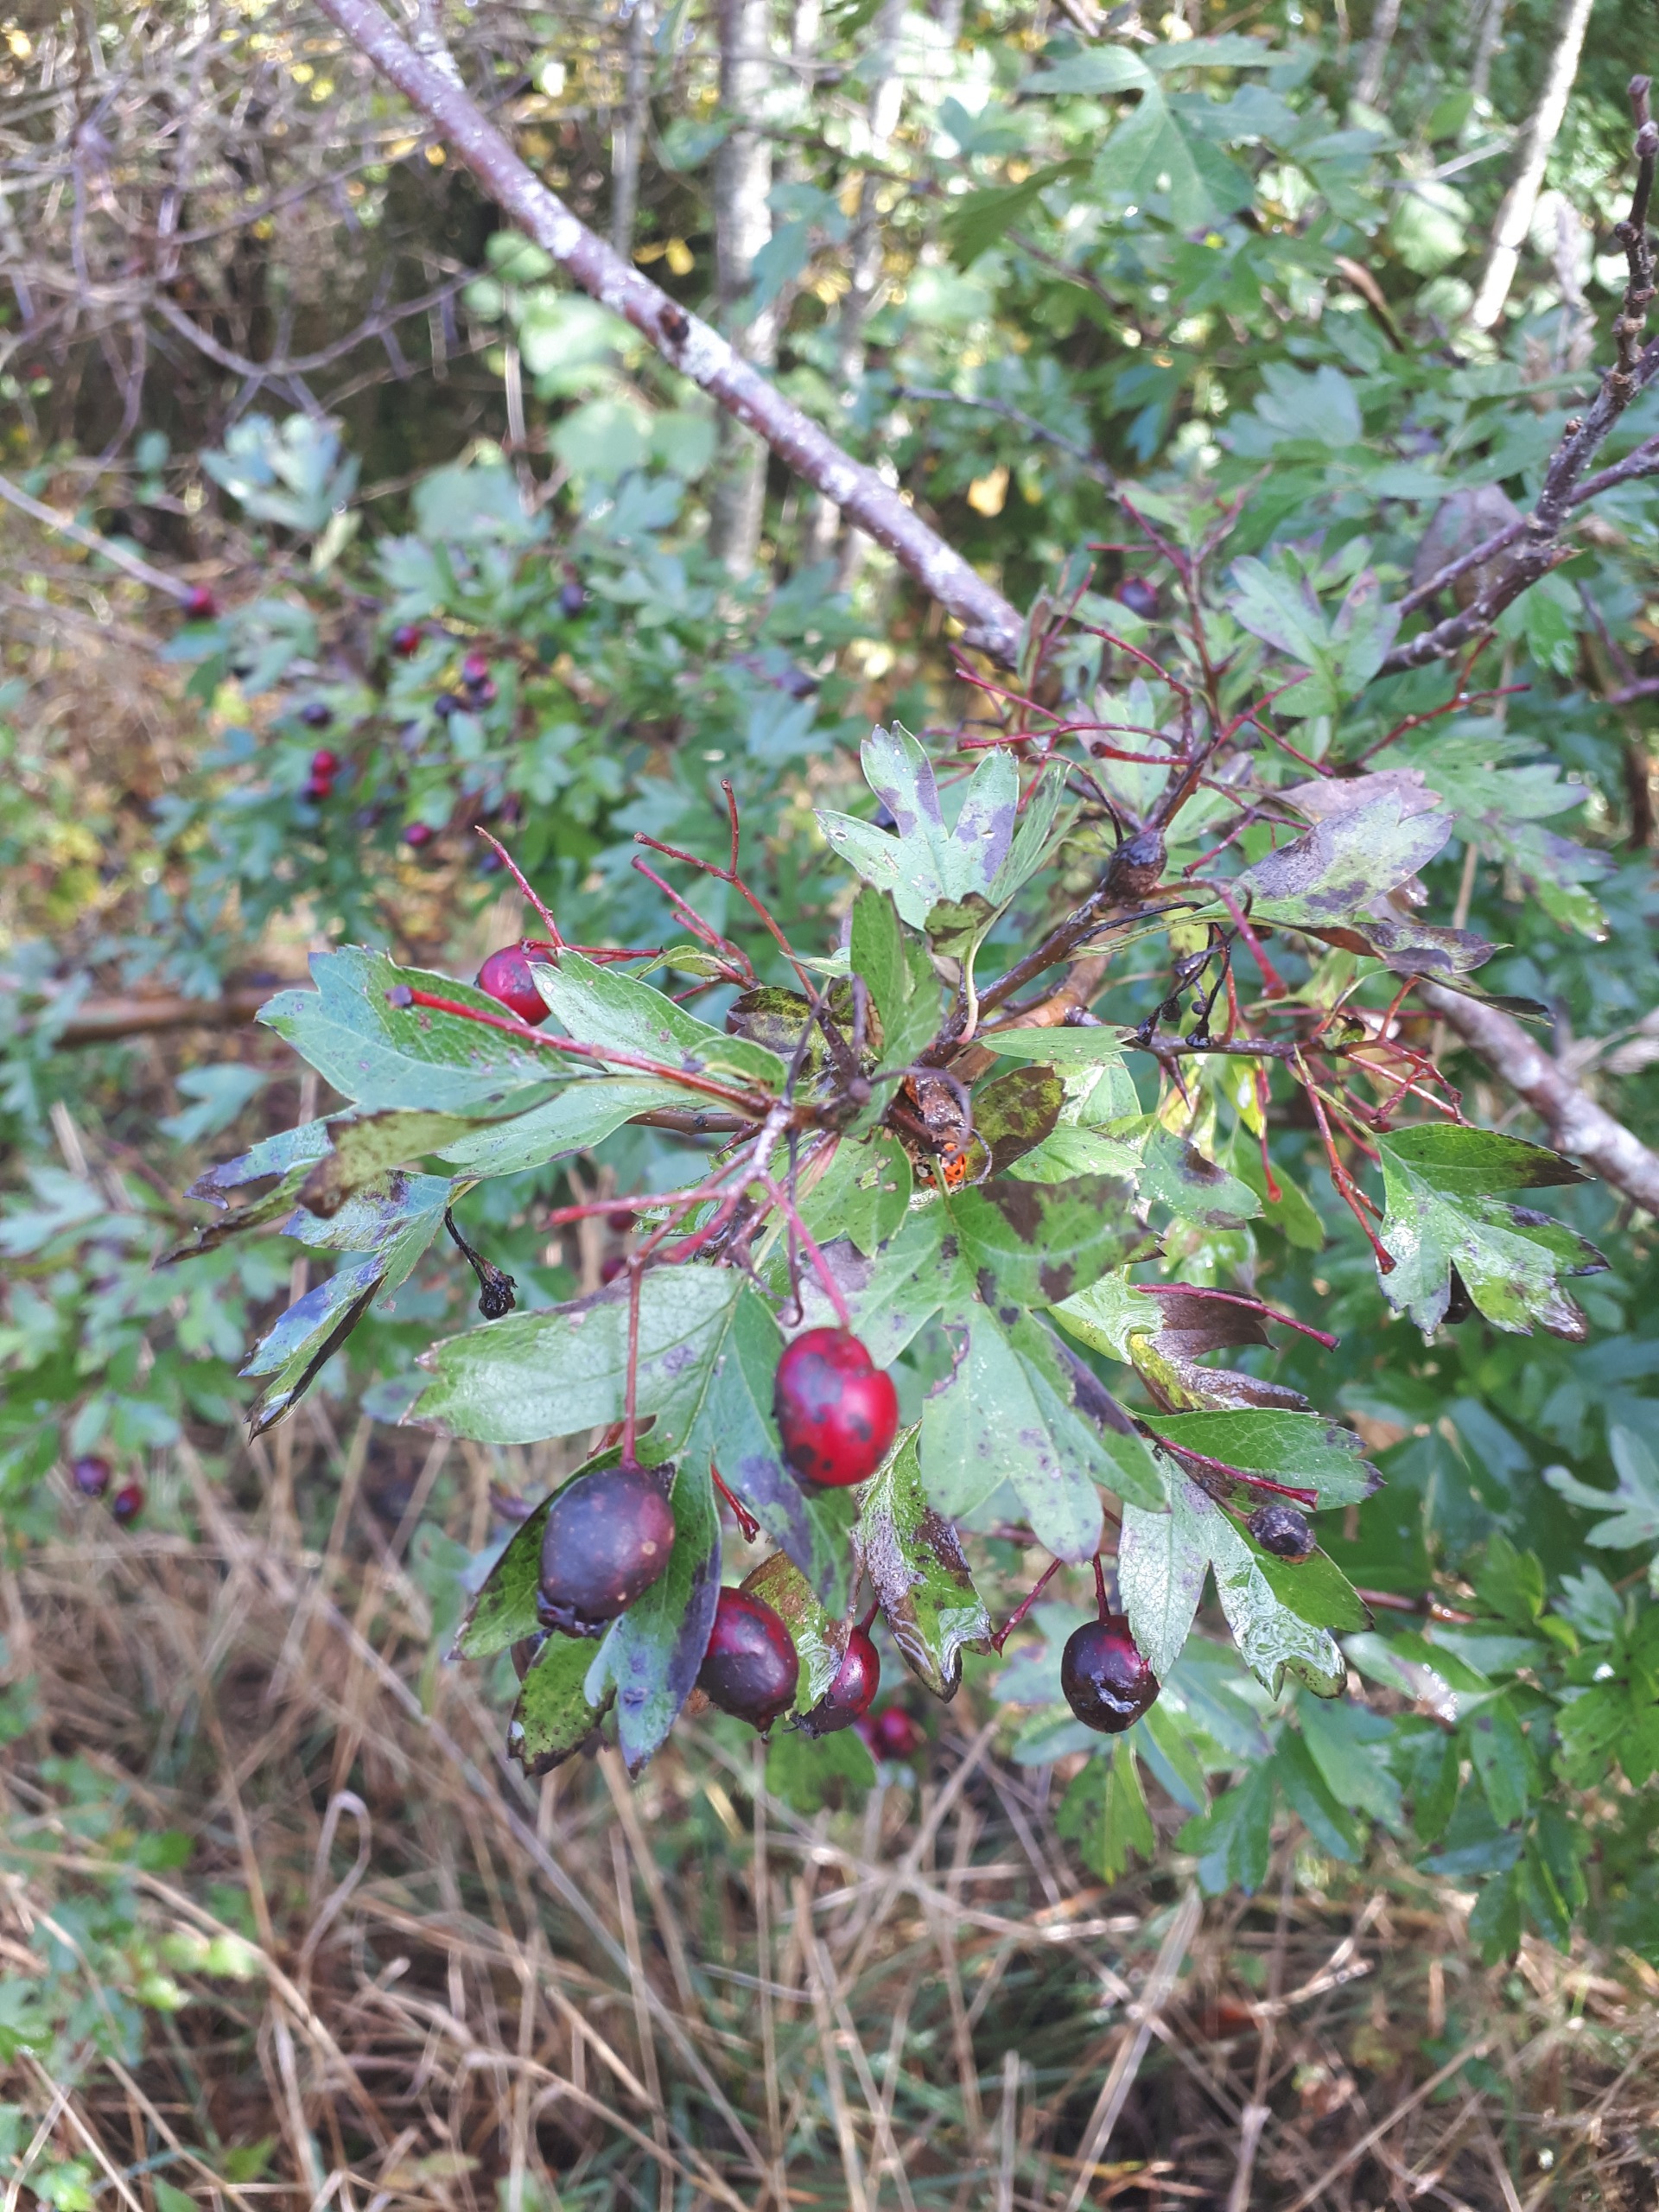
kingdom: Plantae
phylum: Tracheophyta
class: Magnoliopsida
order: Rosales
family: Rosaceae
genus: Crataegus
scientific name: Crataegus monogyna
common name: Engriflet hvidtjørn
